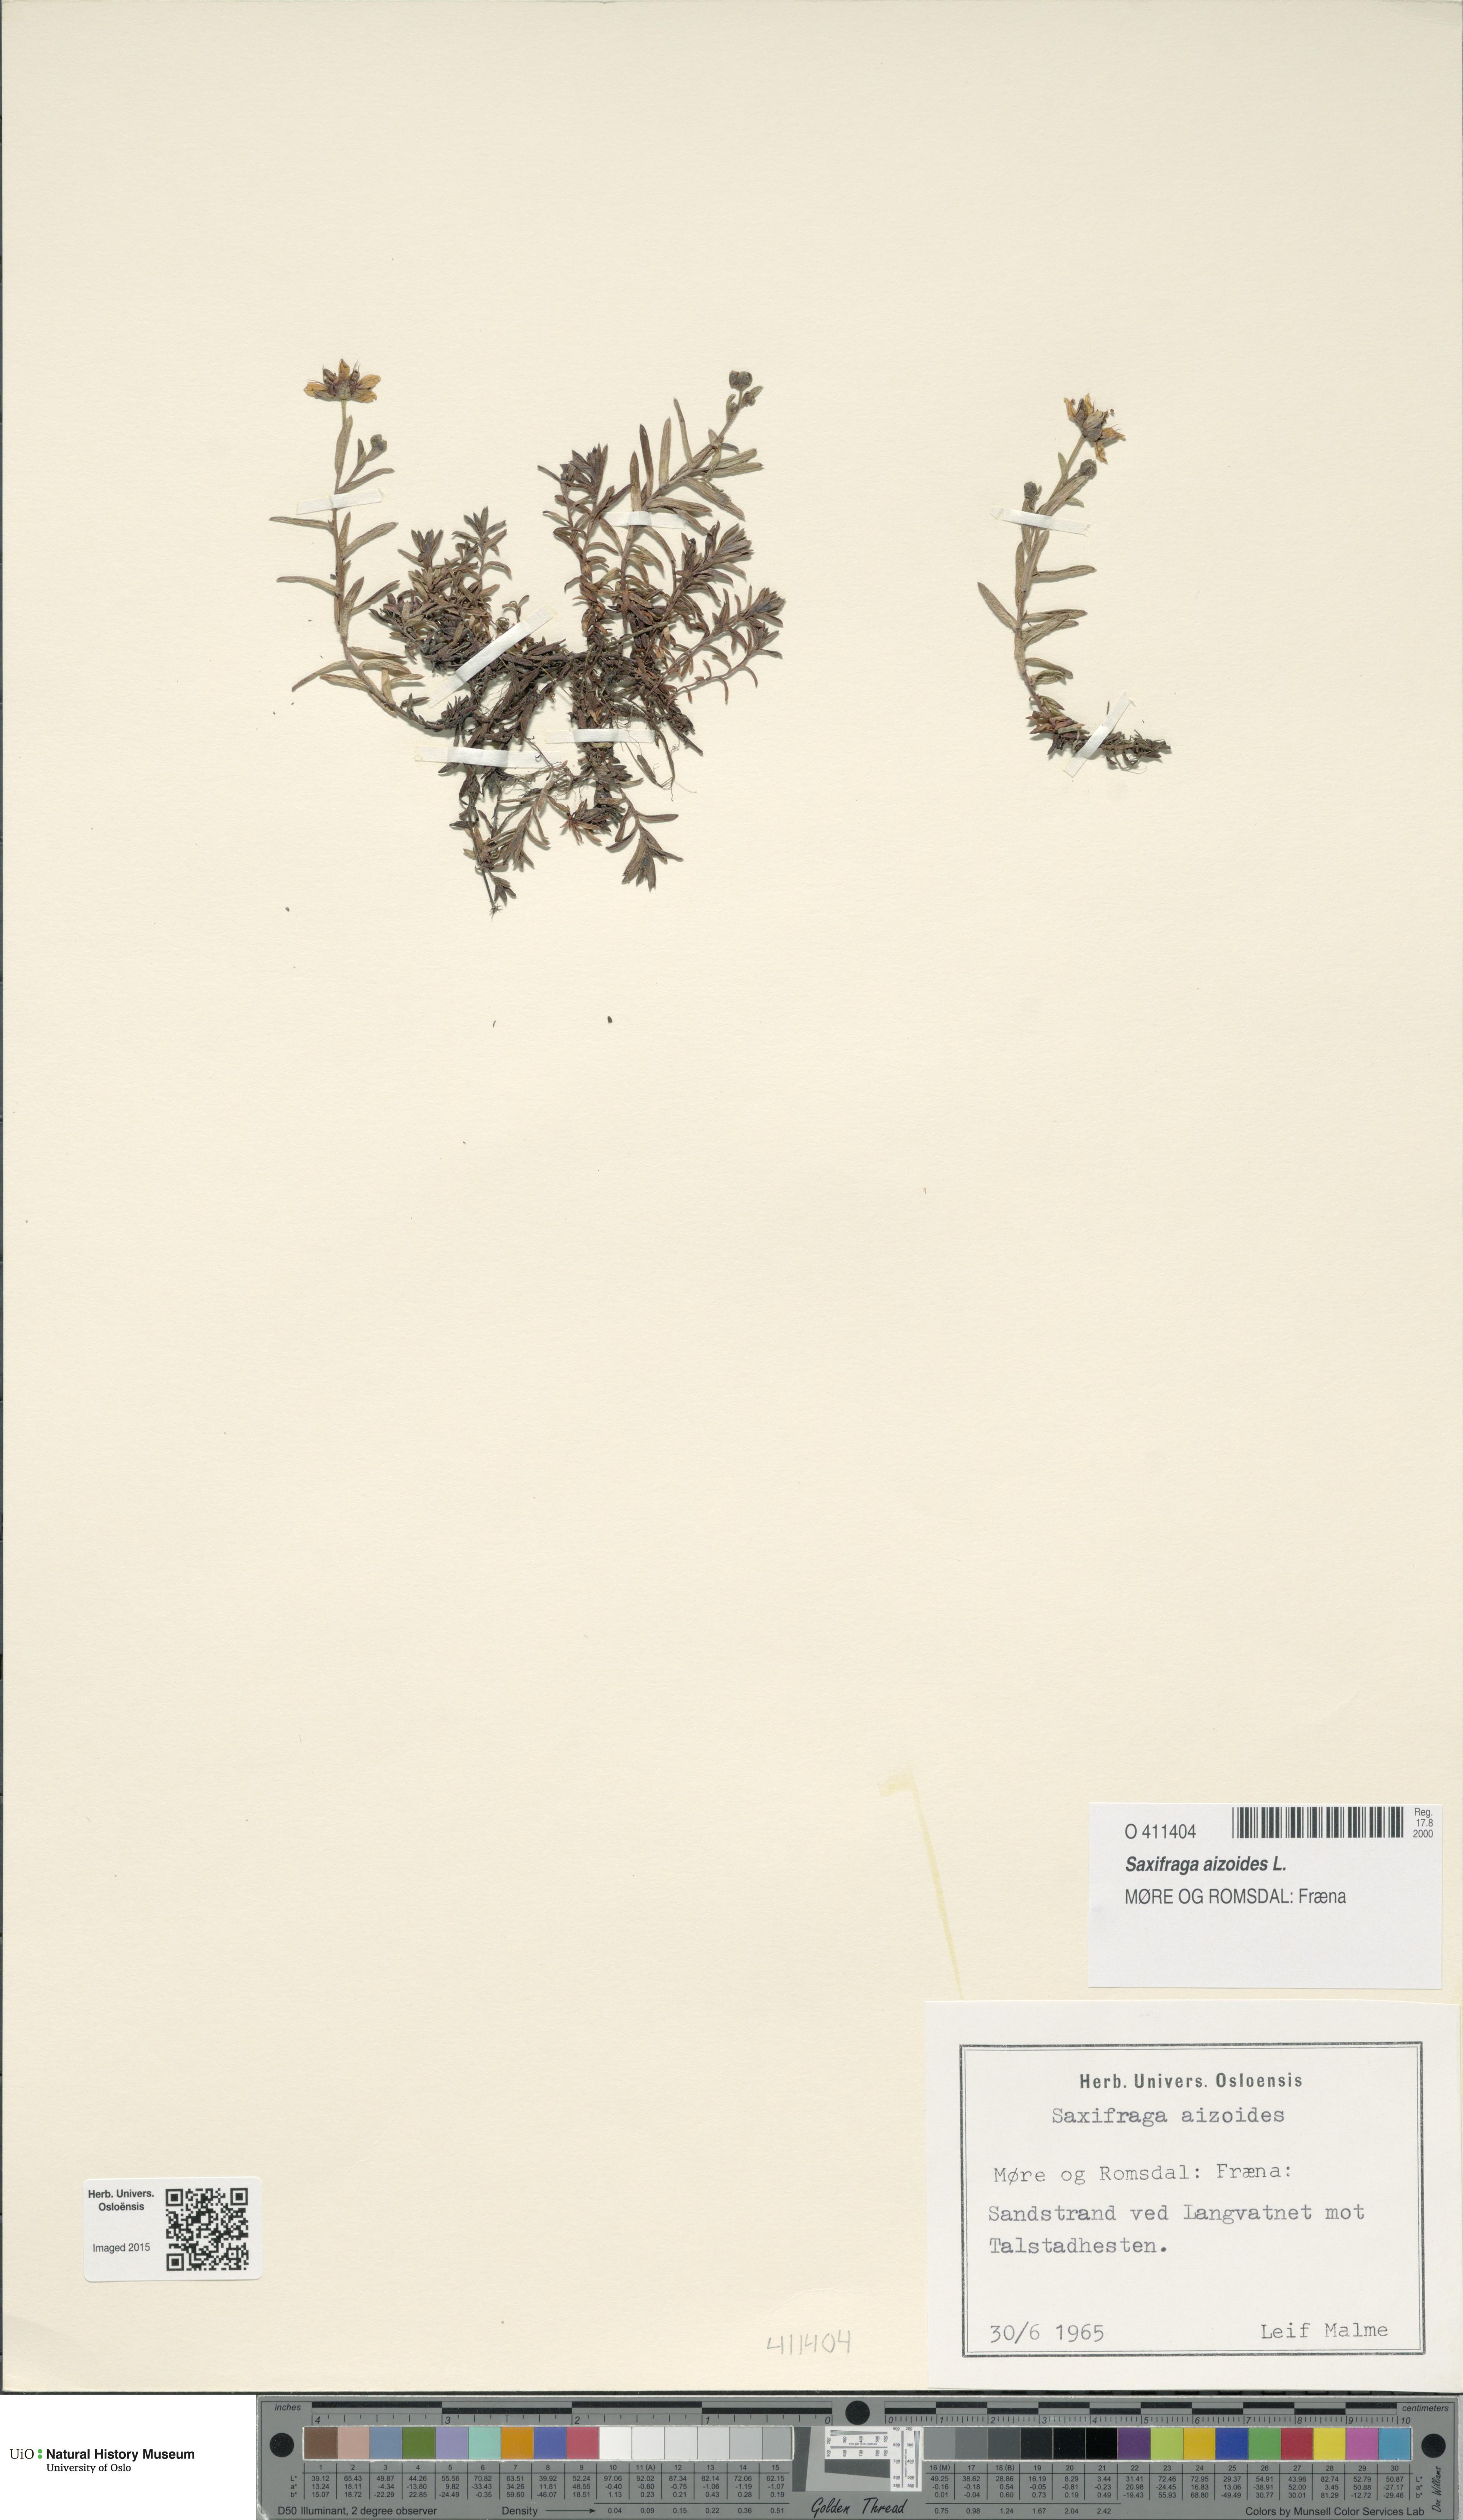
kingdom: Plantae
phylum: Tracheophyta
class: Magnoliopsida
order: Saxifragales
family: Saxifragaceae
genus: Saxifraga
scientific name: Saxifraga aizoides
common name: Yellow mountain saxifrage
